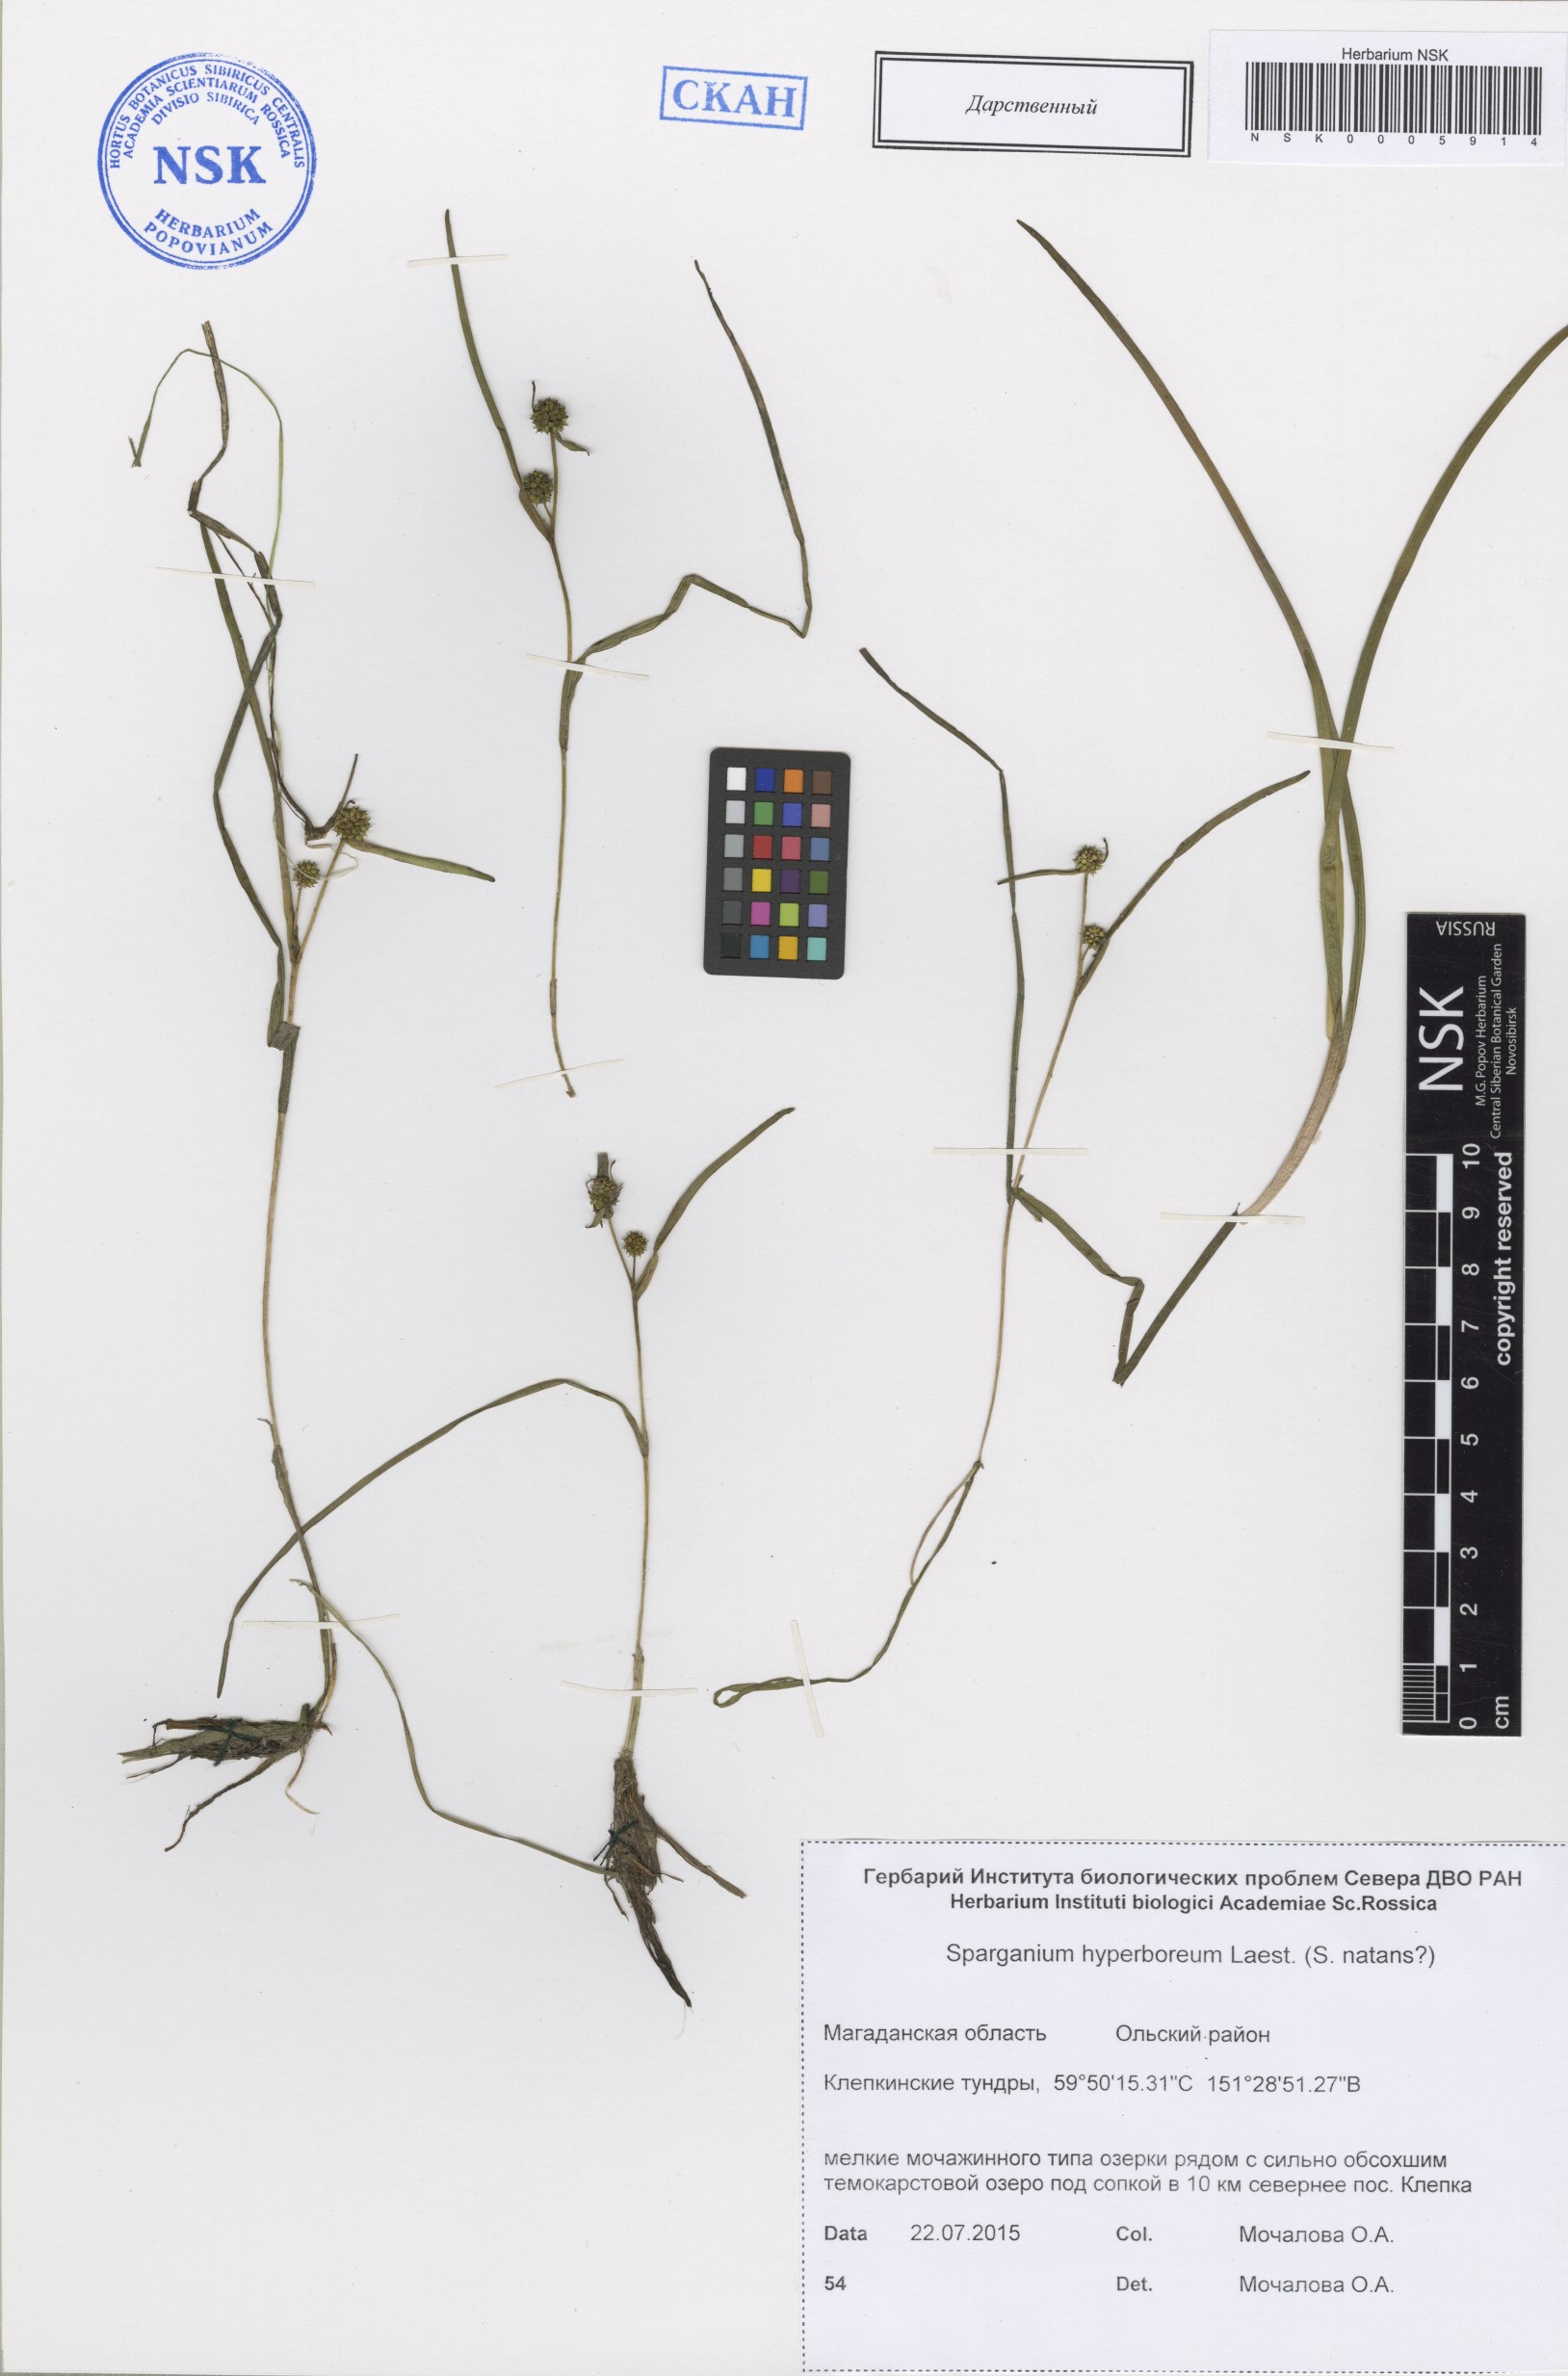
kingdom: Plantae
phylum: Tracheophyta
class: Liliopsida
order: Poales
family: Typhaceae
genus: Sparganium
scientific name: Sparganium hyperboreum
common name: Arctic burreed
